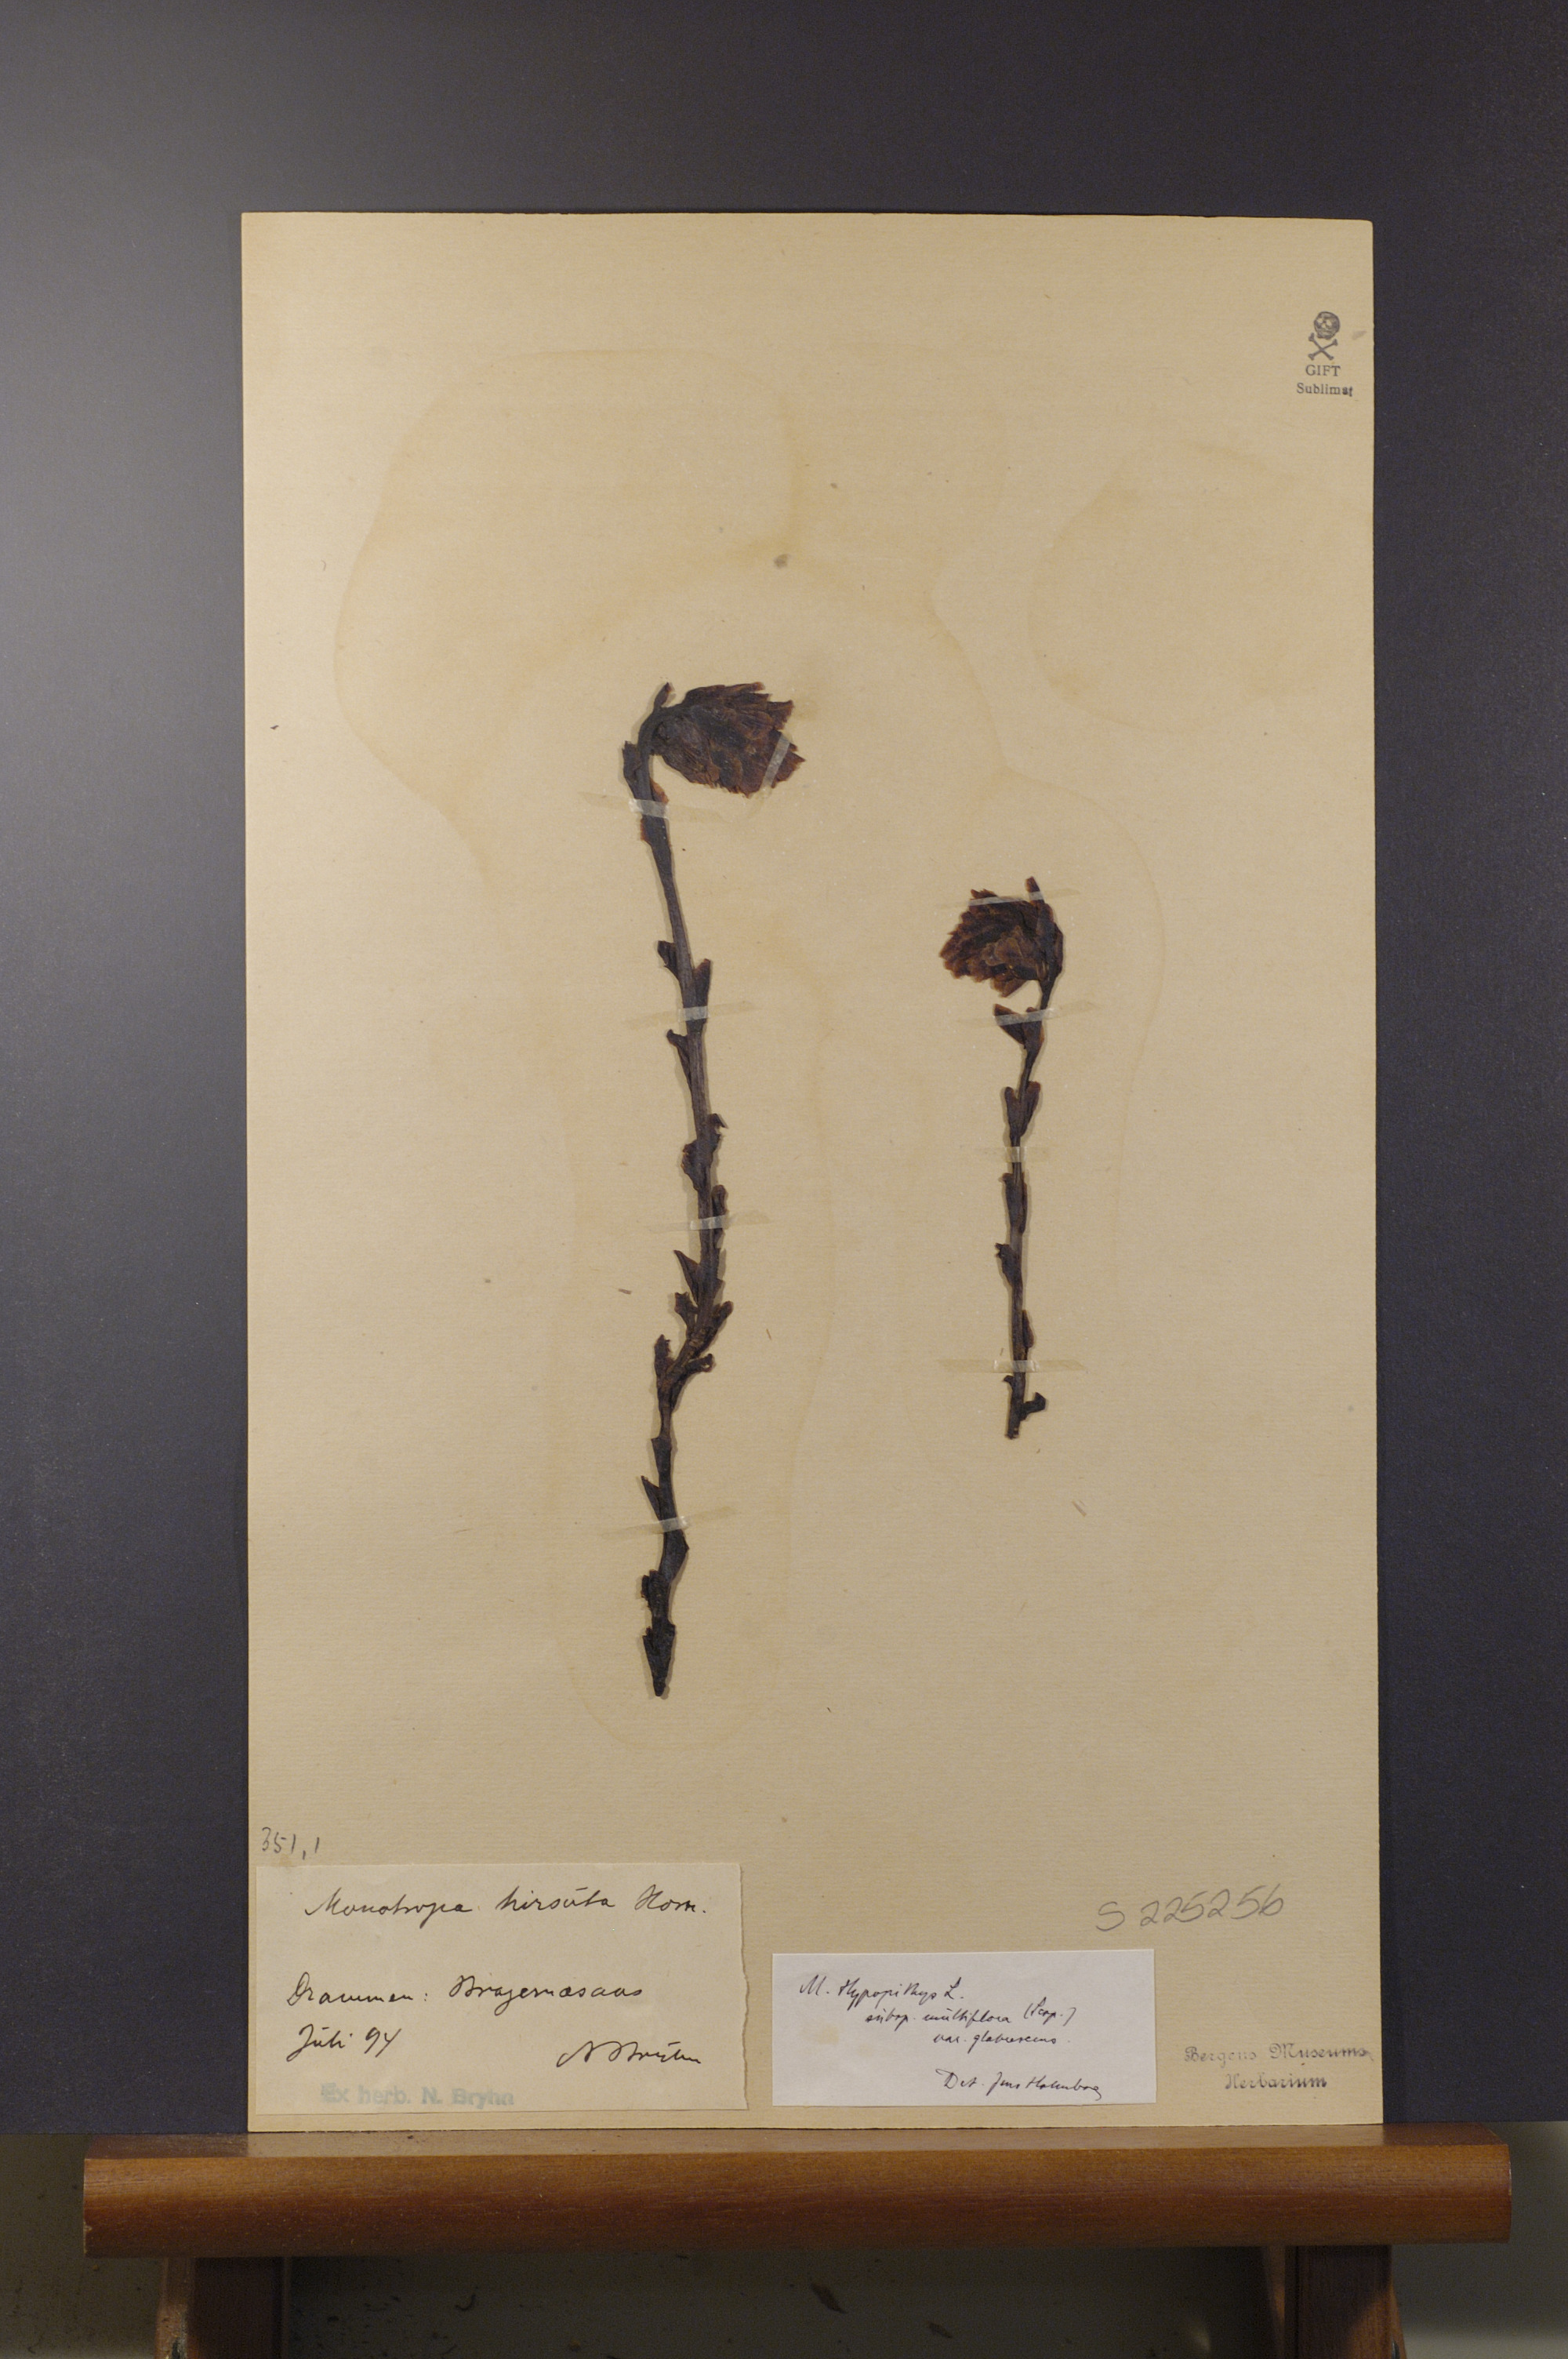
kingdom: Plantae
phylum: Tracheophyta
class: Magnoliopsida
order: Ericales
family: Ericaceae
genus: Hypopitys
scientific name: Hypopitys hypophegea
